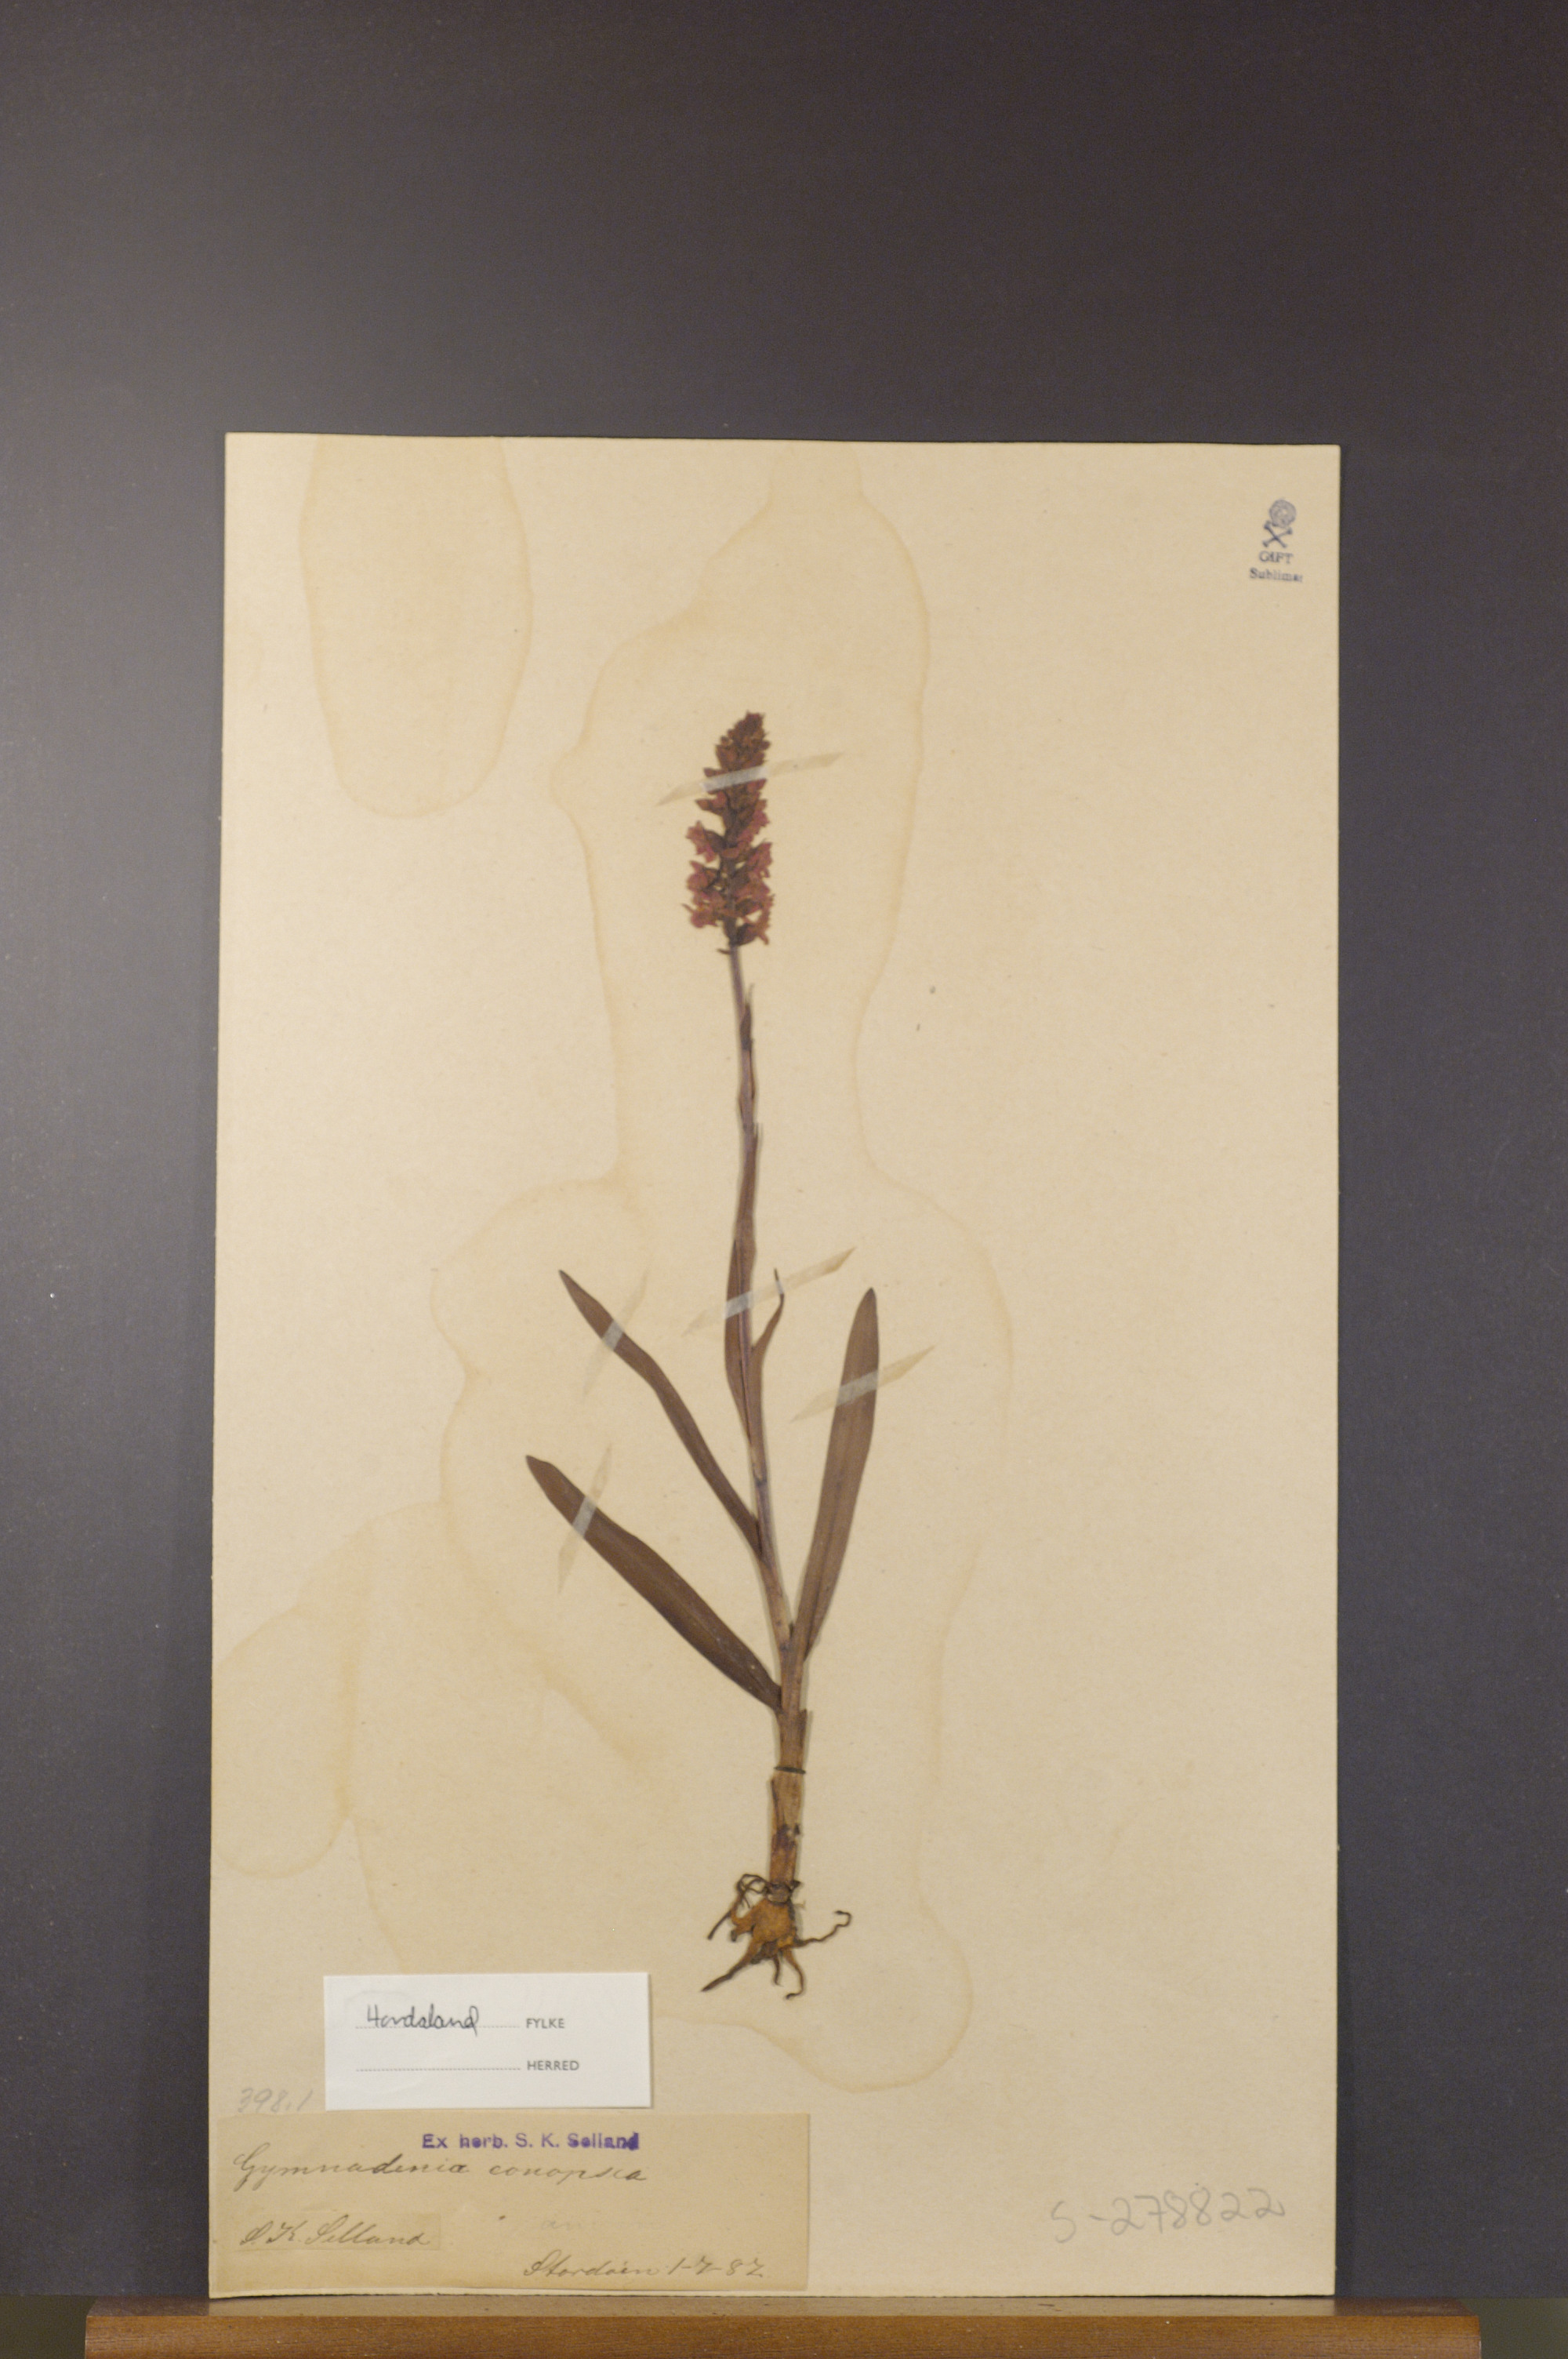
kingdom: Plantae
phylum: Tracheophyta
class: Liliopsida
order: Asparagales
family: Orchidaceae
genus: Gymnadenia
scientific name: Gymnadenia conopsea
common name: Fragrant orchid
